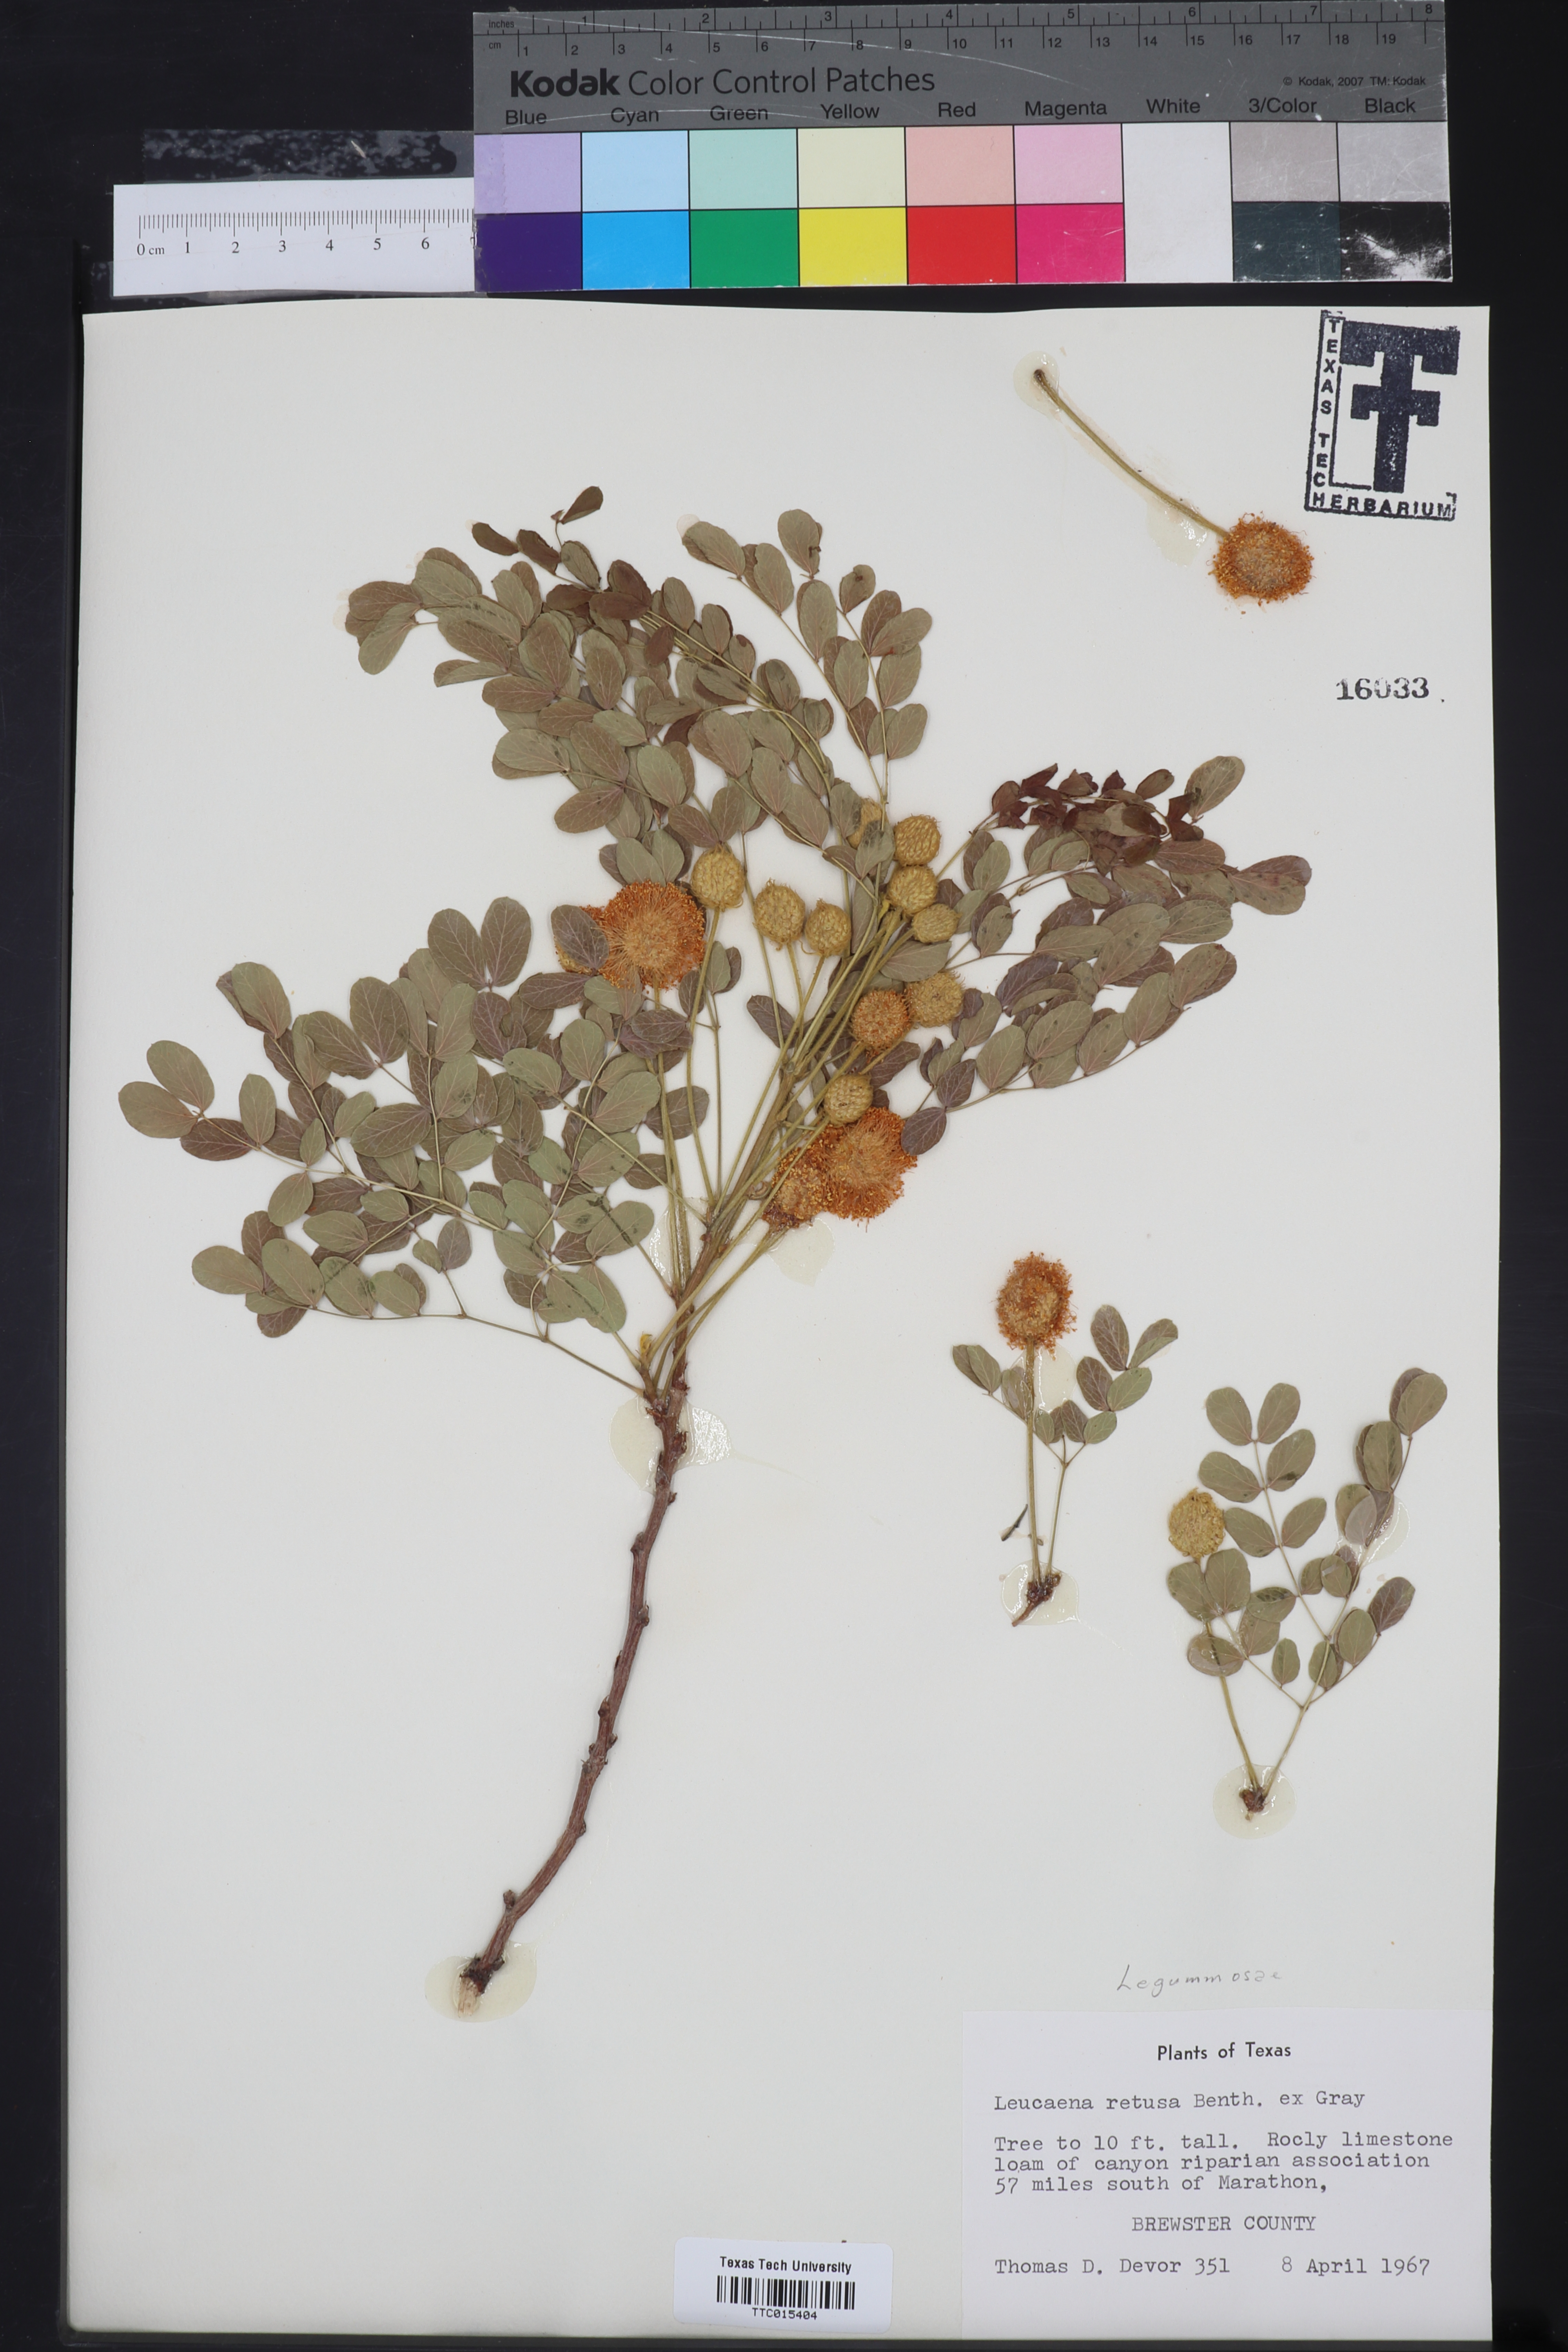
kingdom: Plantae
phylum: Tracheophyta
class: Magnoliopsida
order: Fabales
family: Fabaceae
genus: Leucaena
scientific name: Leucaena retusa
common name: Littleleaf leadtree
